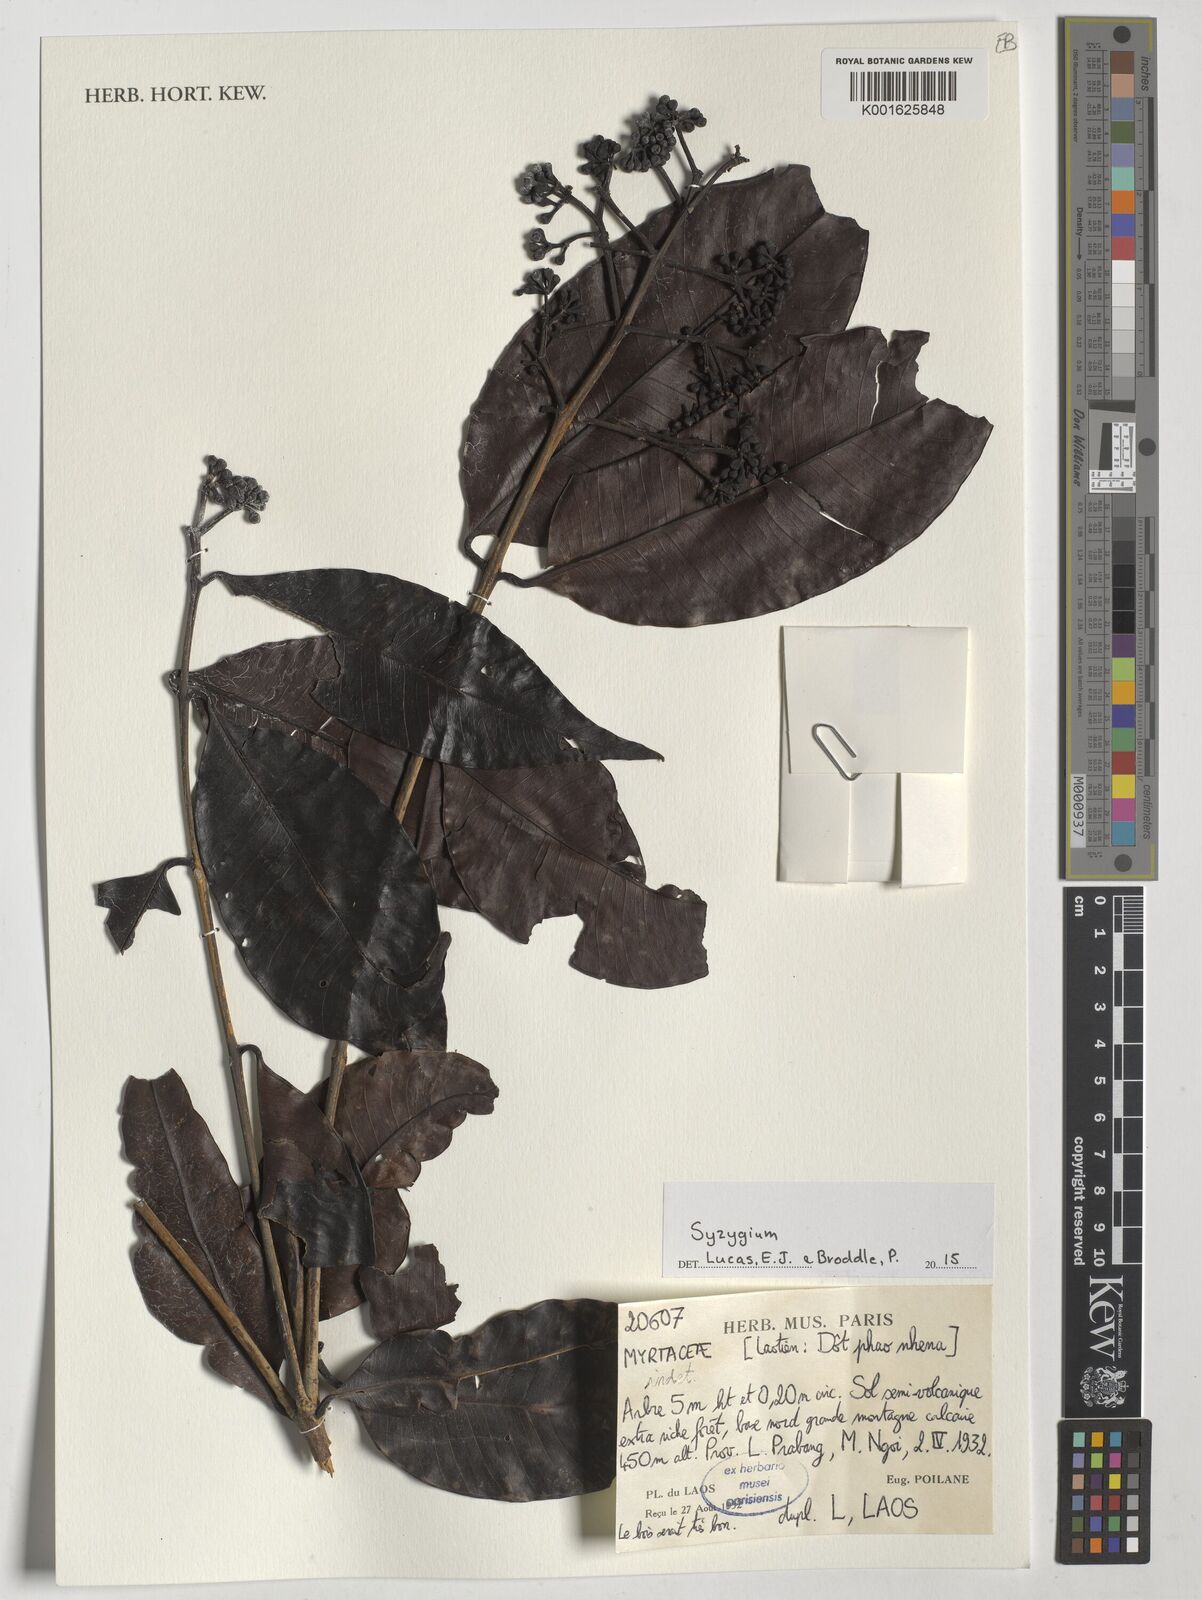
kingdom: Plantae
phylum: Tracheophyta
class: Magnoliopsida
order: Myrtales
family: Myrtaceae
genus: Syzygium
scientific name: Syzygium
